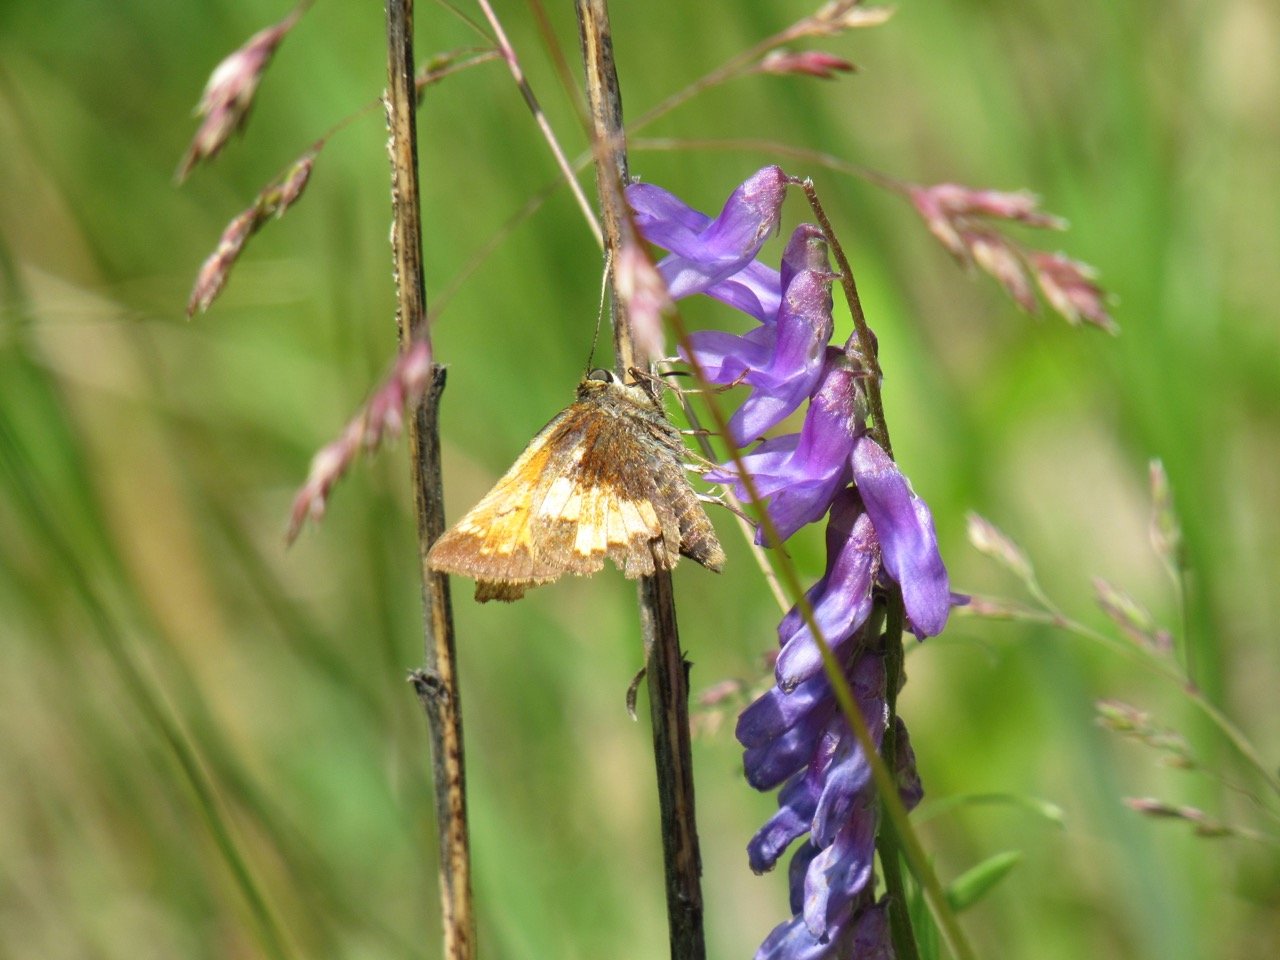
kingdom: Animalia
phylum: Arthropoda
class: Insecta
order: Lepidoptera
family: Hesperiidae
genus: Lon
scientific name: Lon hobomok
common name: Hobomok Skipper
